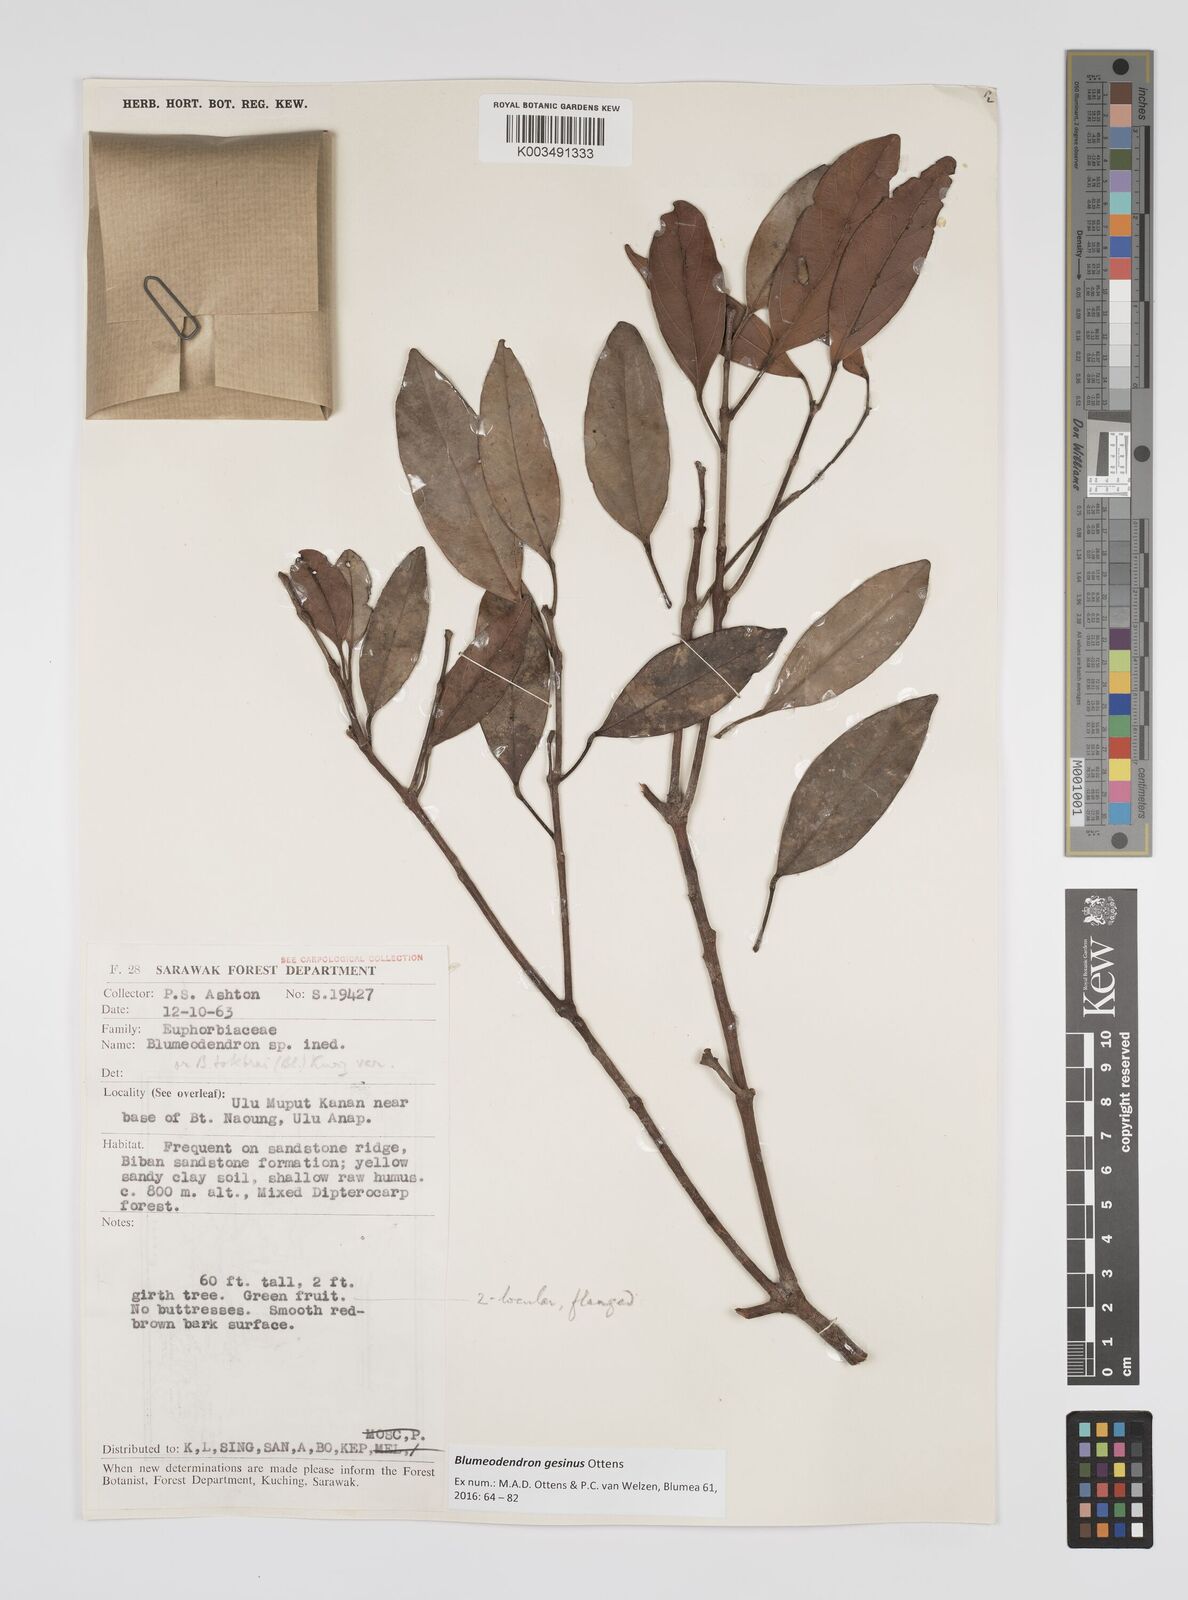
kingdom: Plantae
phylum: Tracheophyta
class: Magnoliopsida
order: Malpighiales
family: Euphorbiaceae
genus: Blumeodendron
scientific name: Blumeodendron gesinus
